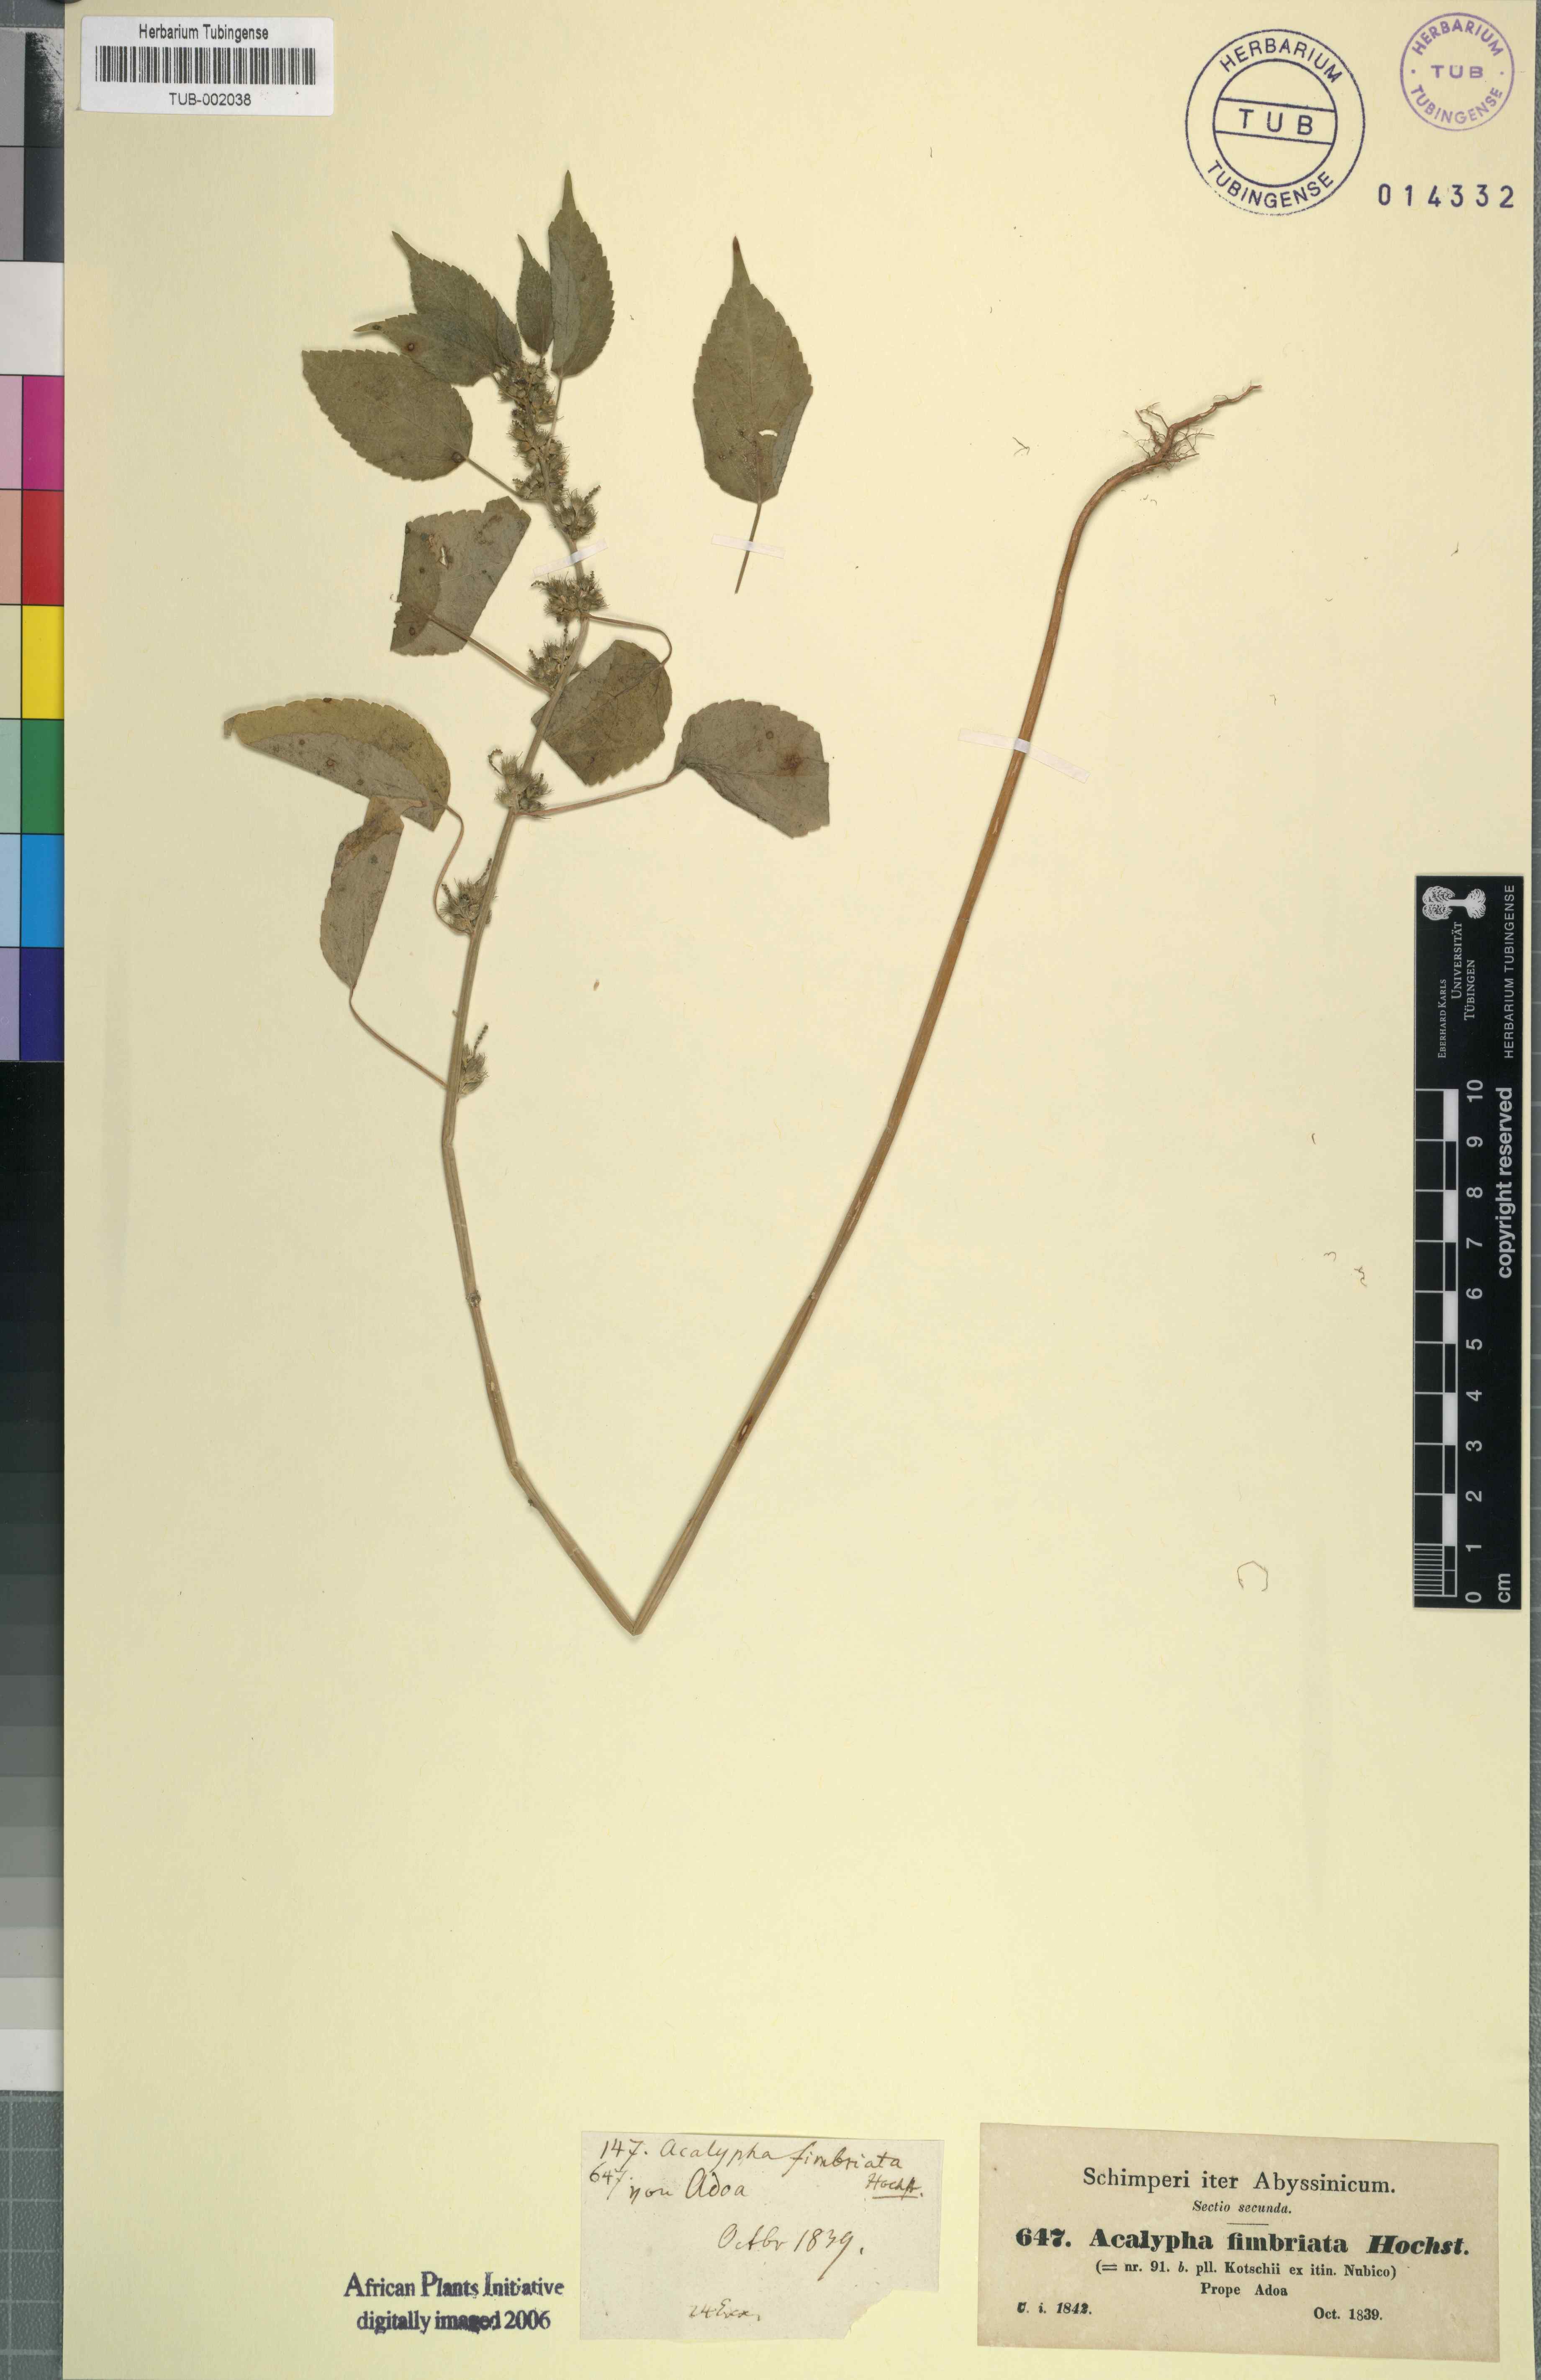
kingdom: Plantae
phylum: Tracheophyta
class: Magnoliopsida
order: Malpighiales
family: Euphorbiaceae
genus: Acalypha
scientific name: Acalypha fimbriata
